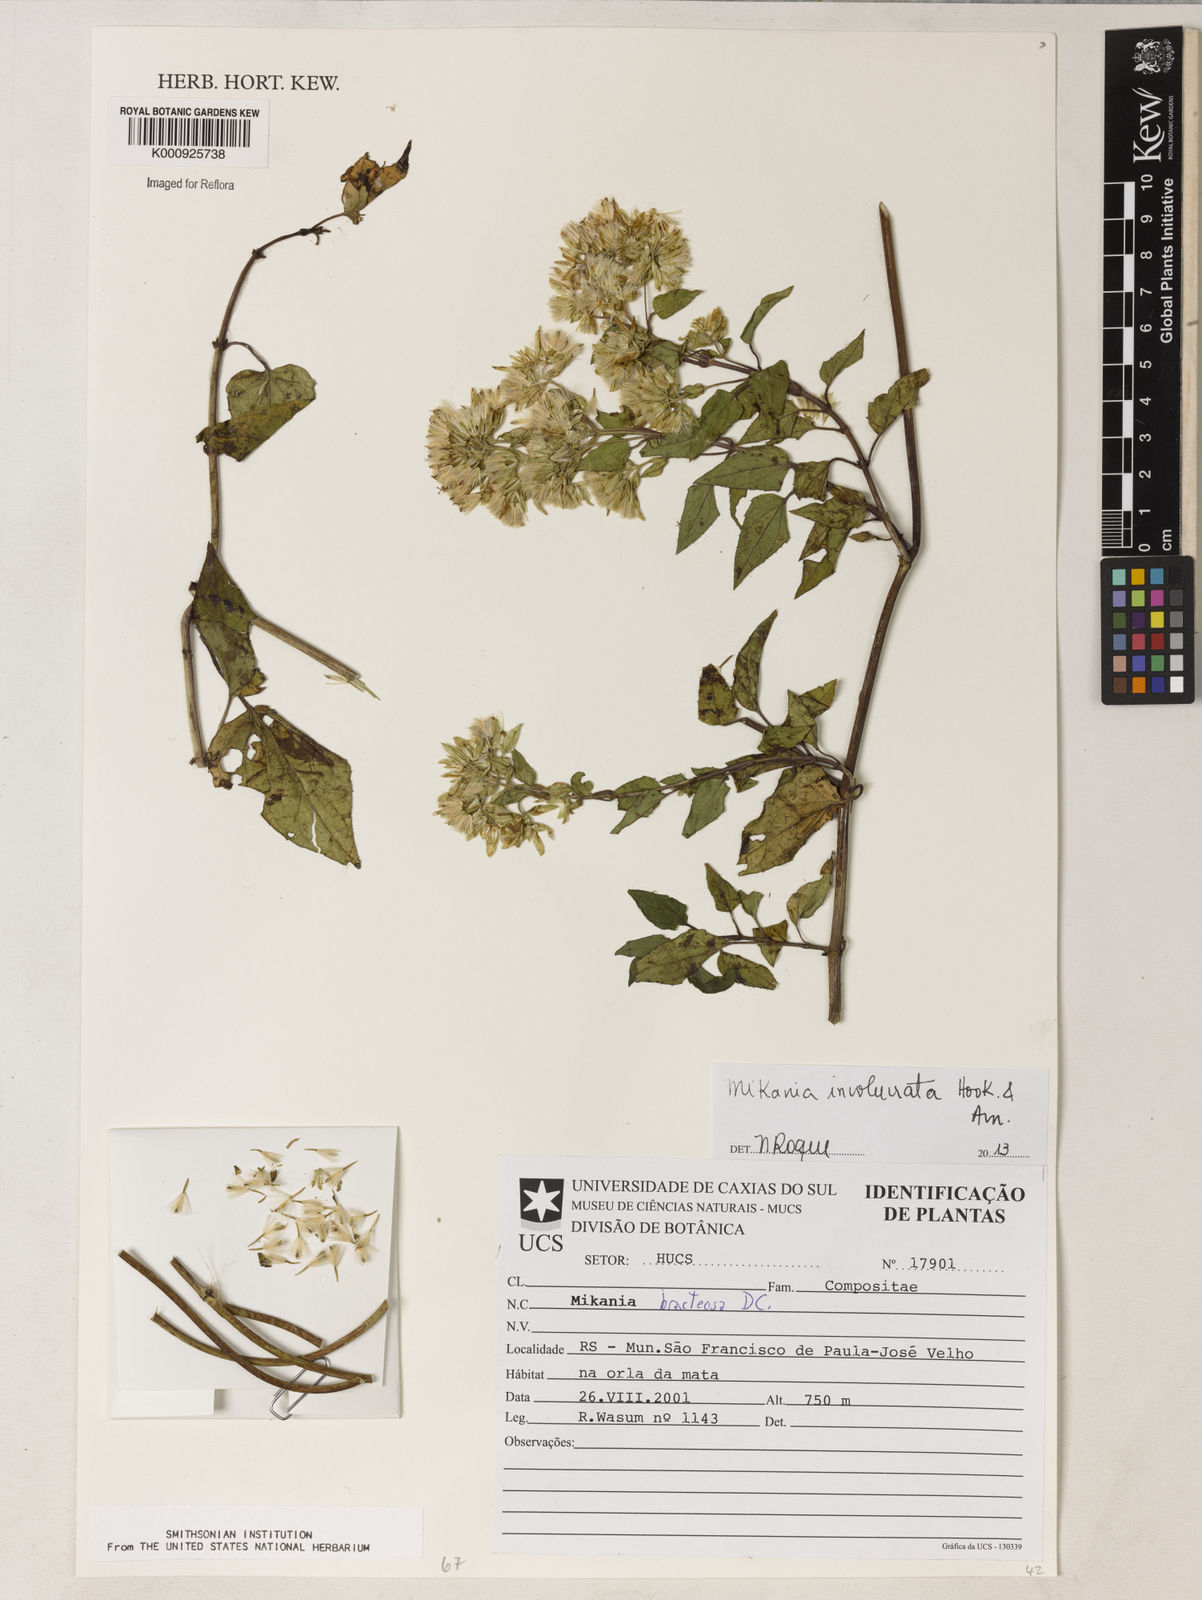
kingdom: Plantae
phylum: Tracheophyta
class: Magnoliopsida
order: Asterales
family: Asteraceae
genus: Mikania
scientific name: Mikania involucrata
